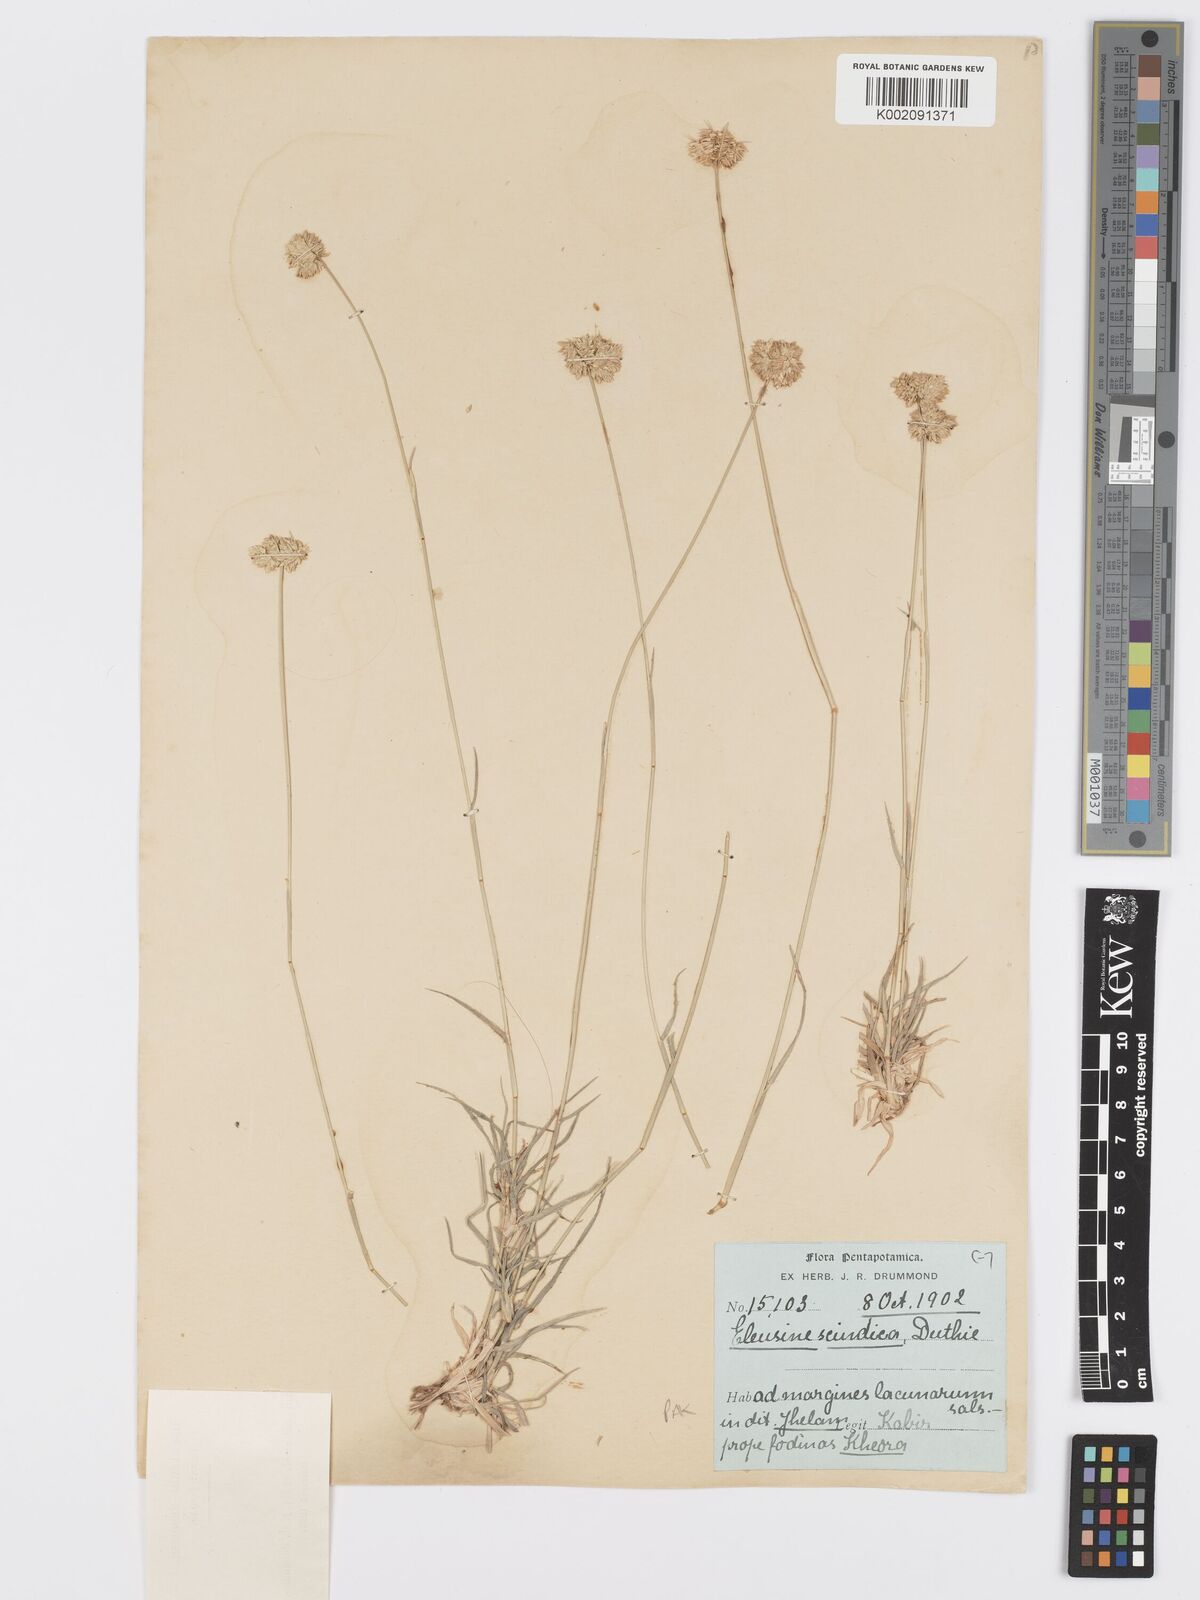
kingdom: Plantae
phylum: Tracheophyta
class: Liliopsida
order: Poales
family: Poaceae
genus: Dactyloctenium
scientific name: Dactyloctenium scindicum
